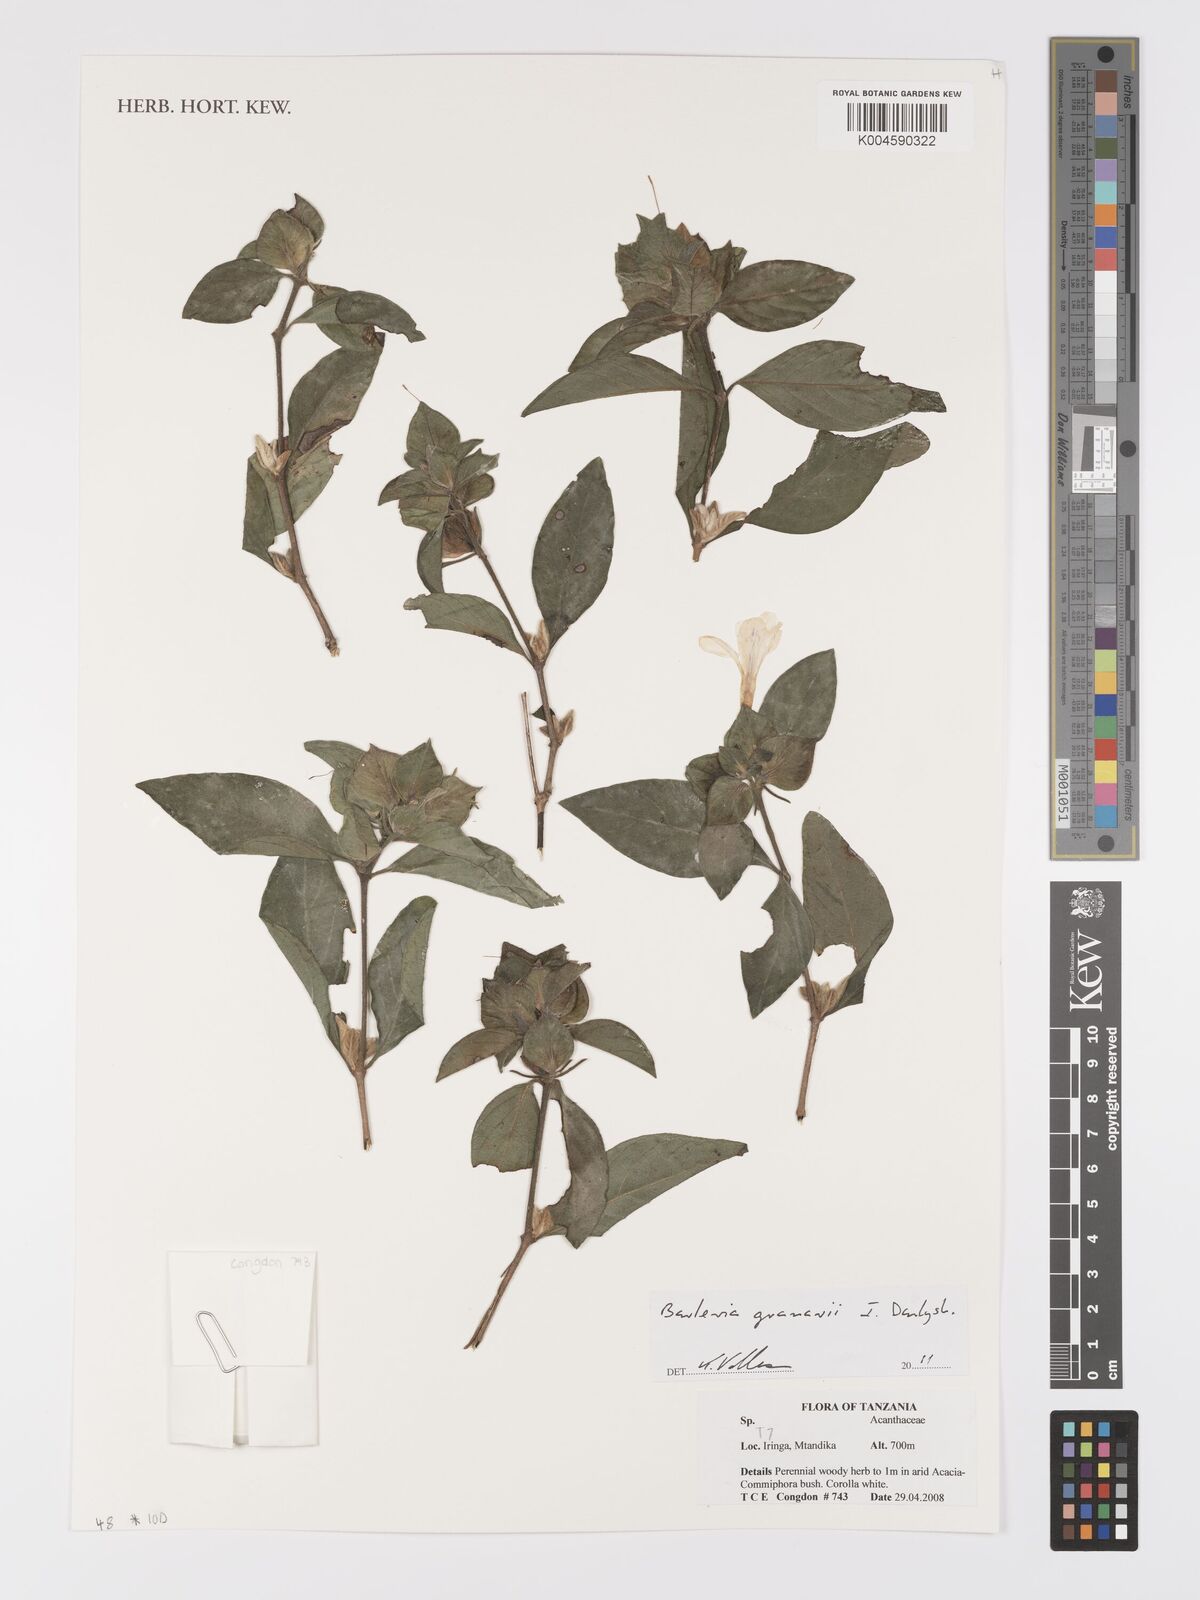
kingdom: Plantae
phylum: Tracheophyta
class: Magnoliopsida
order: Lamiales
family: Acanthaceae
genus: Barleria
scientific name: Barleria granarii
